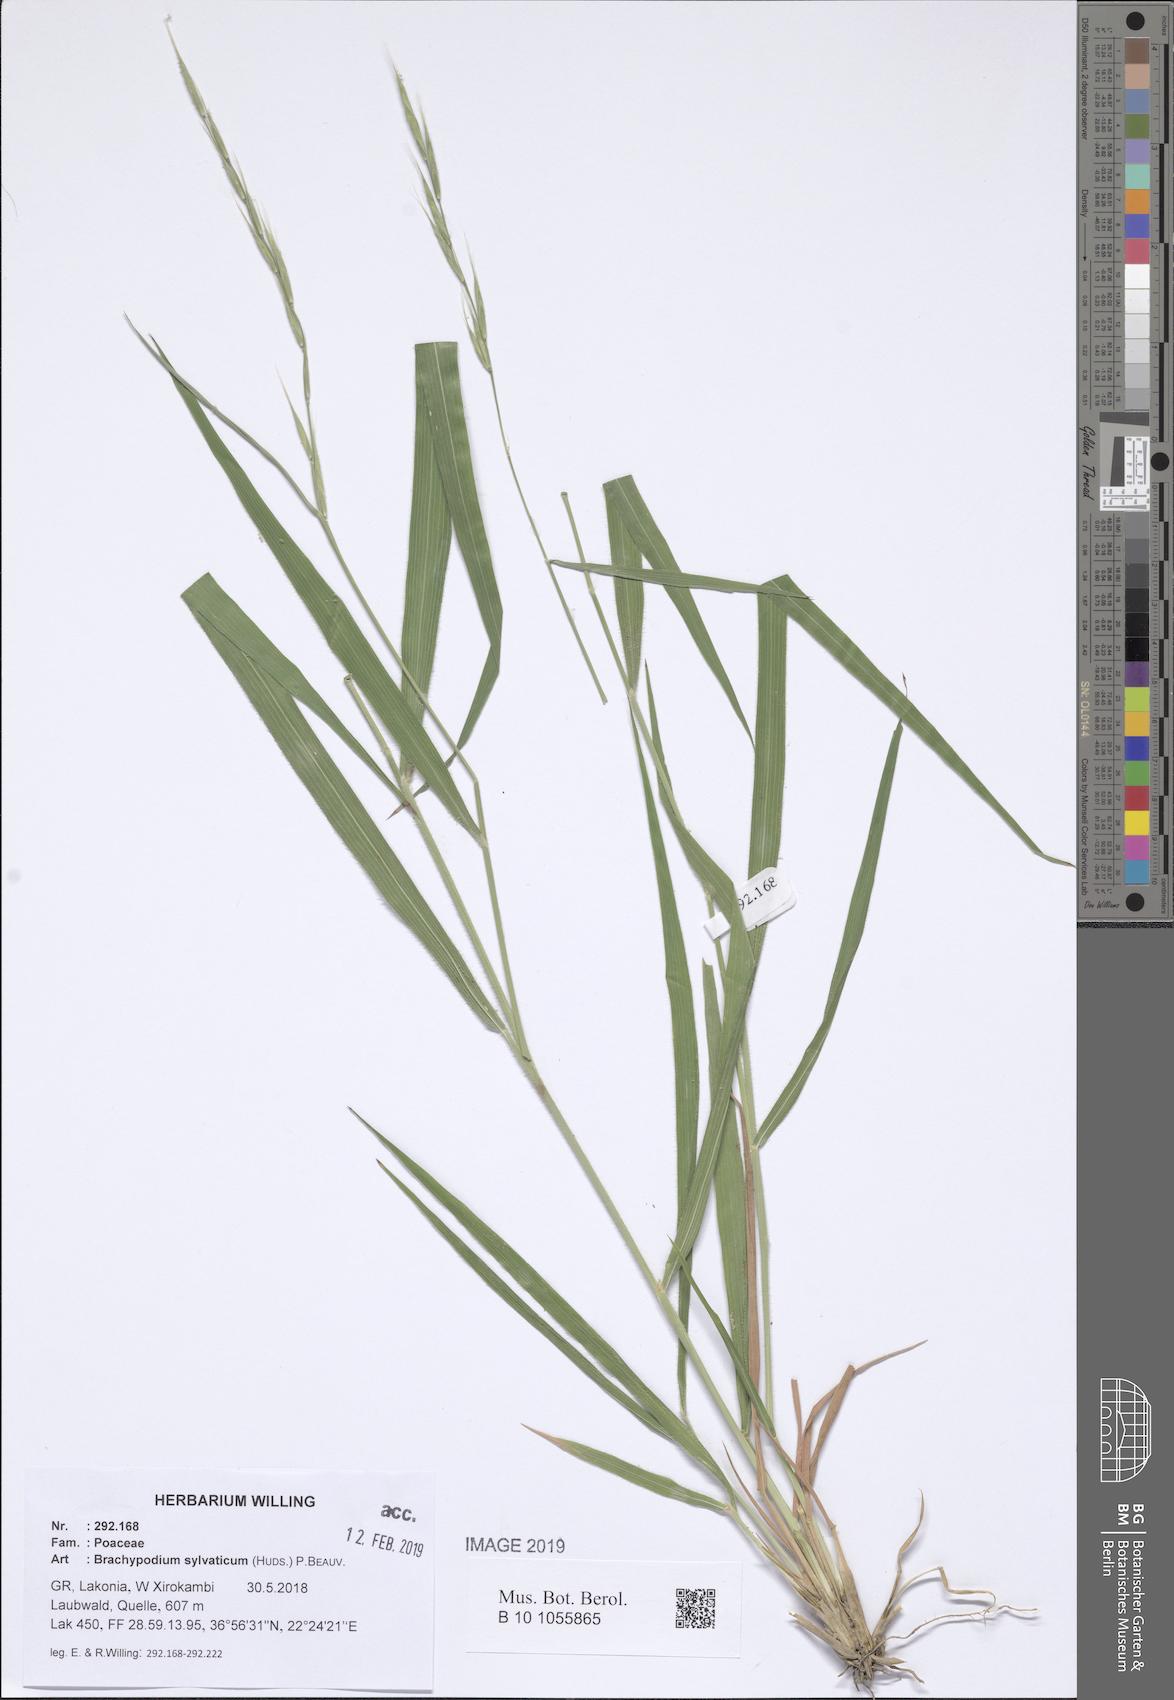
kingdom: Plantae
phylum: Tracheophyta
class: Liliopsida
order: Poales
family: Poaceae
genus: Brachypodium
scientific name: Brachypodium sylvaticum
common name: False-brome
